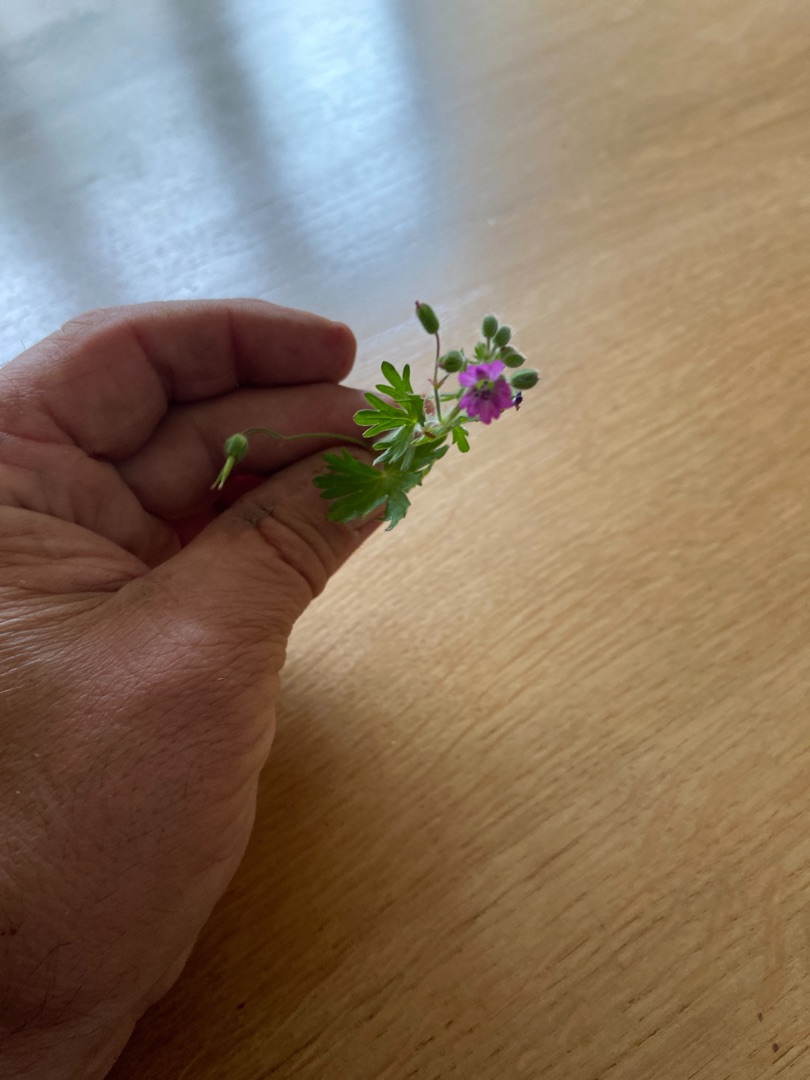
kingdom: Plantae
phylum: Tracheophyta
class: Magnoliopsida
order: Geraniales
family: Geraniaceae
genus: Geranium
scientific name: Geranium molle
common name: Blød storkenæb
